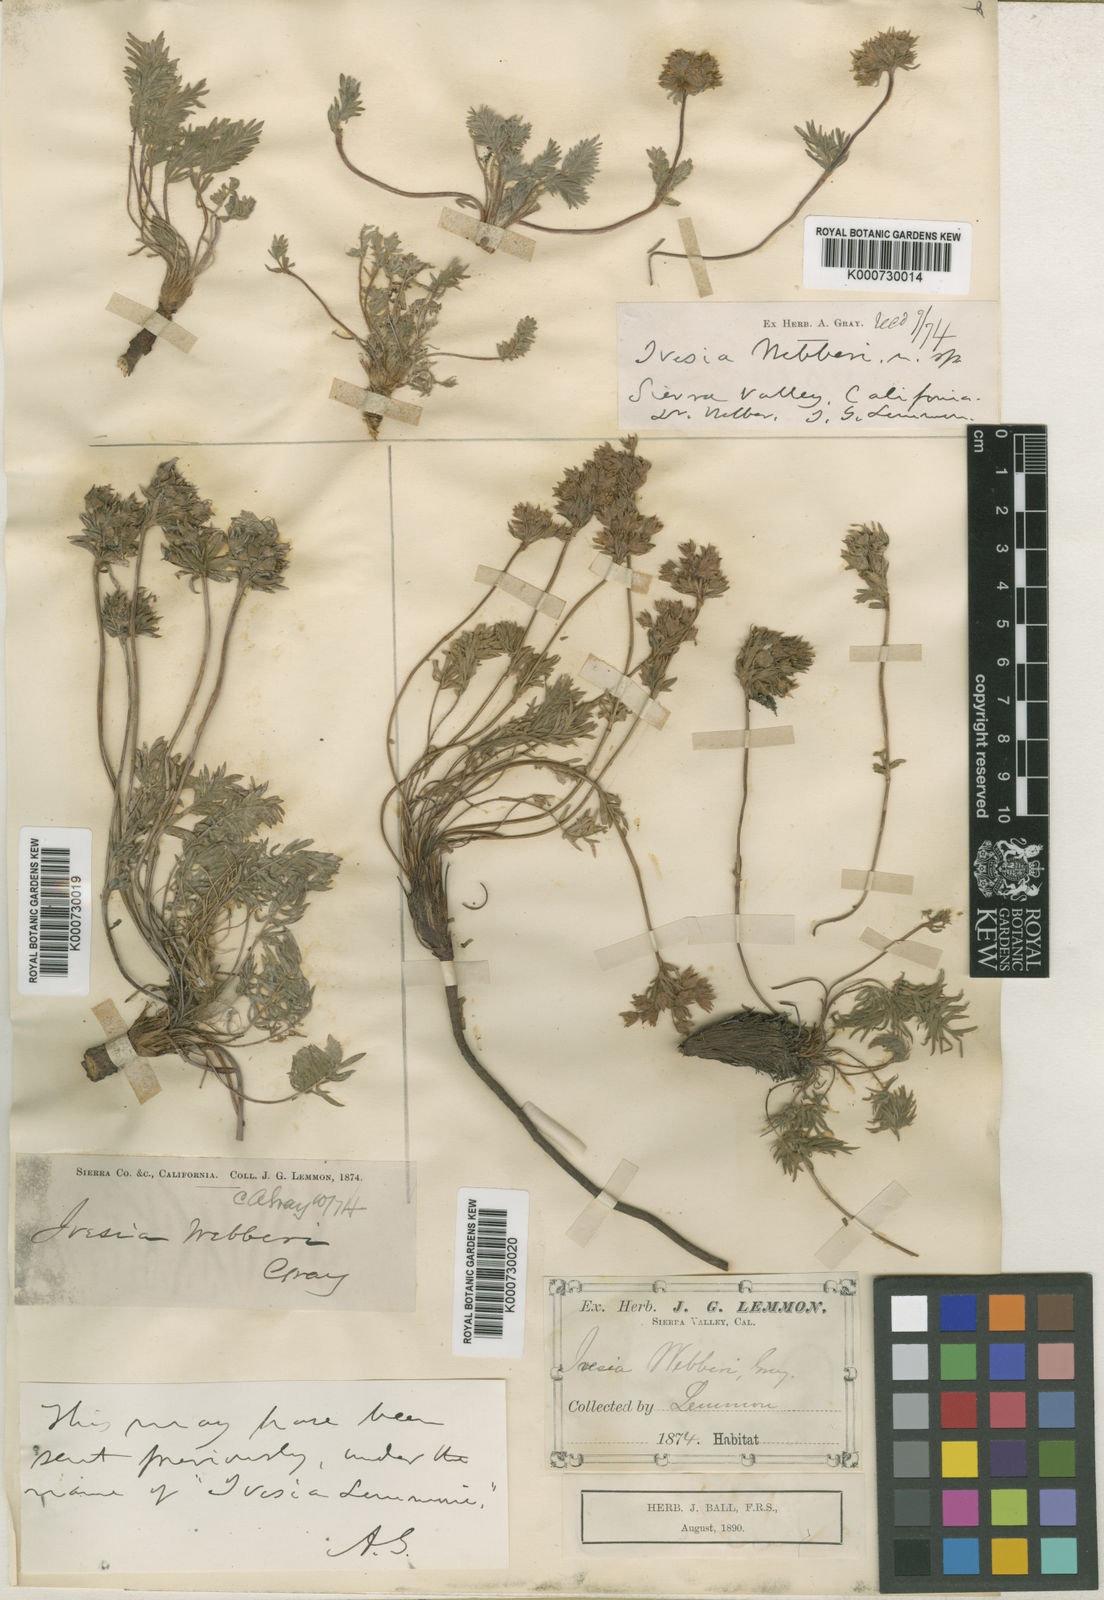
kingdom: Plantae
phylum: Tracheophyta
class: Magnoliopsida
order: Rosales
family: Rosaceae
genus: Potentilla
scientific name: Potentilla webberi
